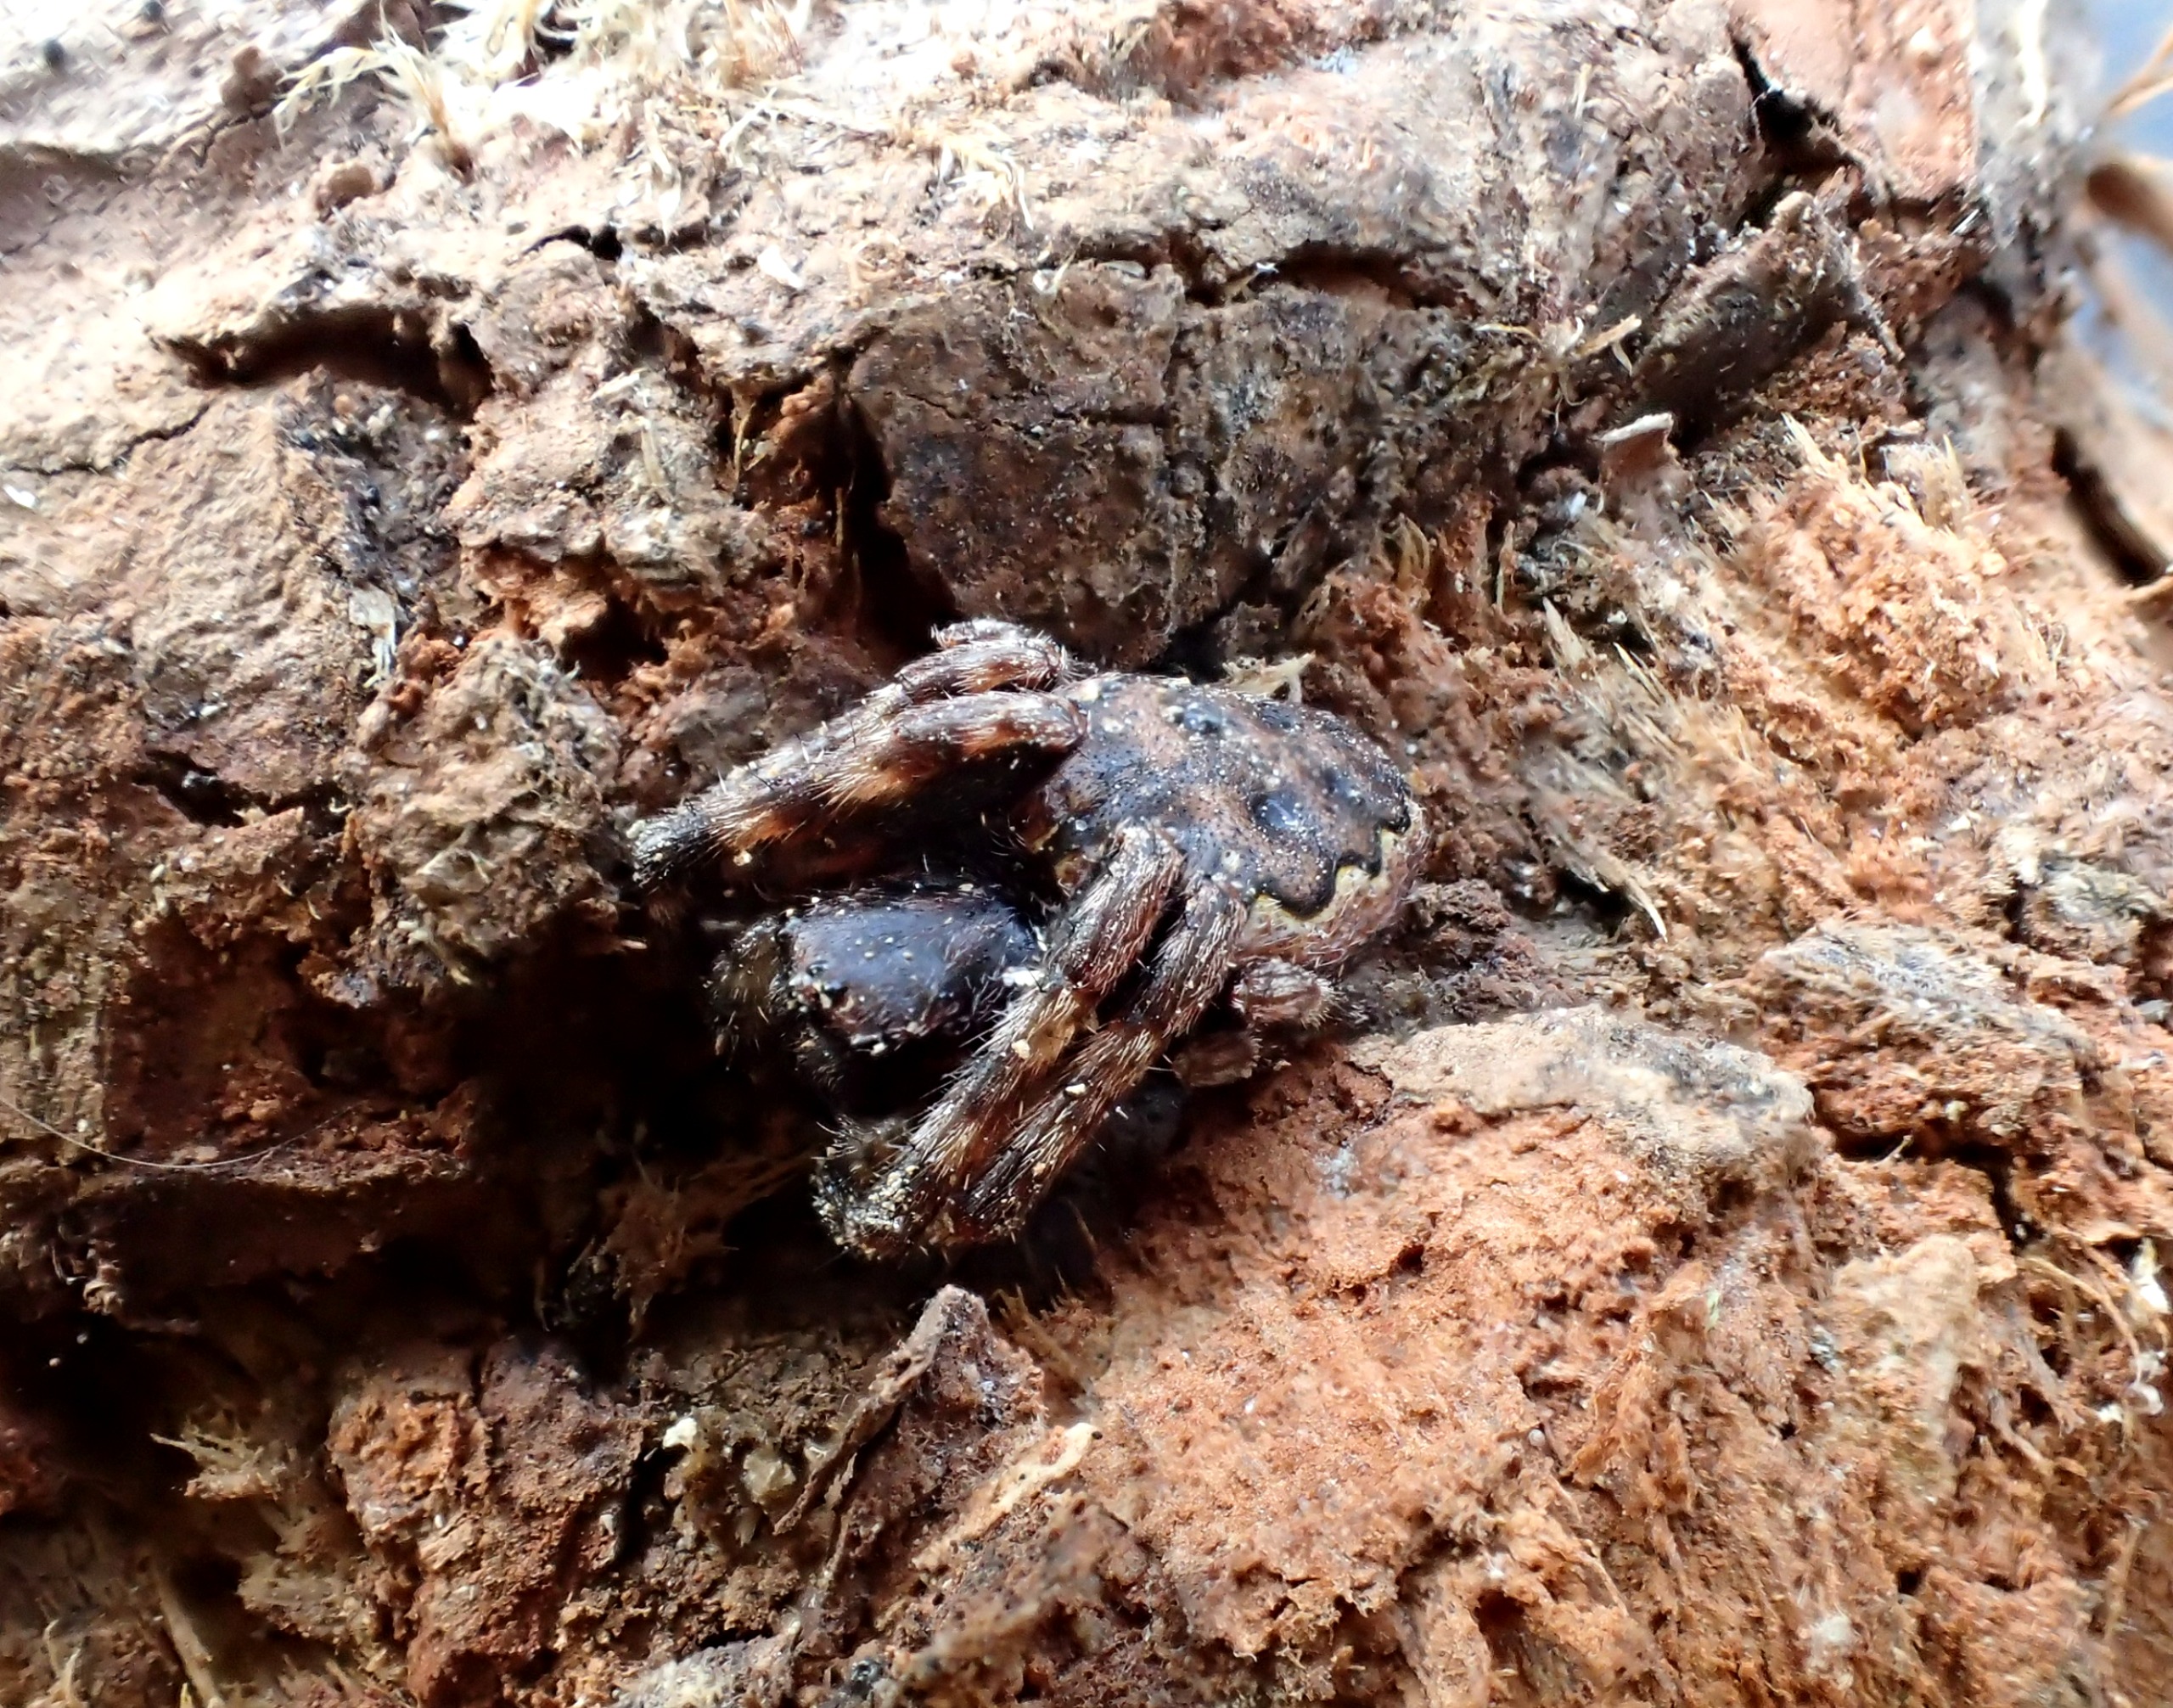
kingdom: Animalia
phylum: Arthropoda
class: Arachnida
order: Araneae
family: Araneidae
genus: Nuctenea
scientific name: Nuctenea umbratica
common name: Flad hjulspinder
